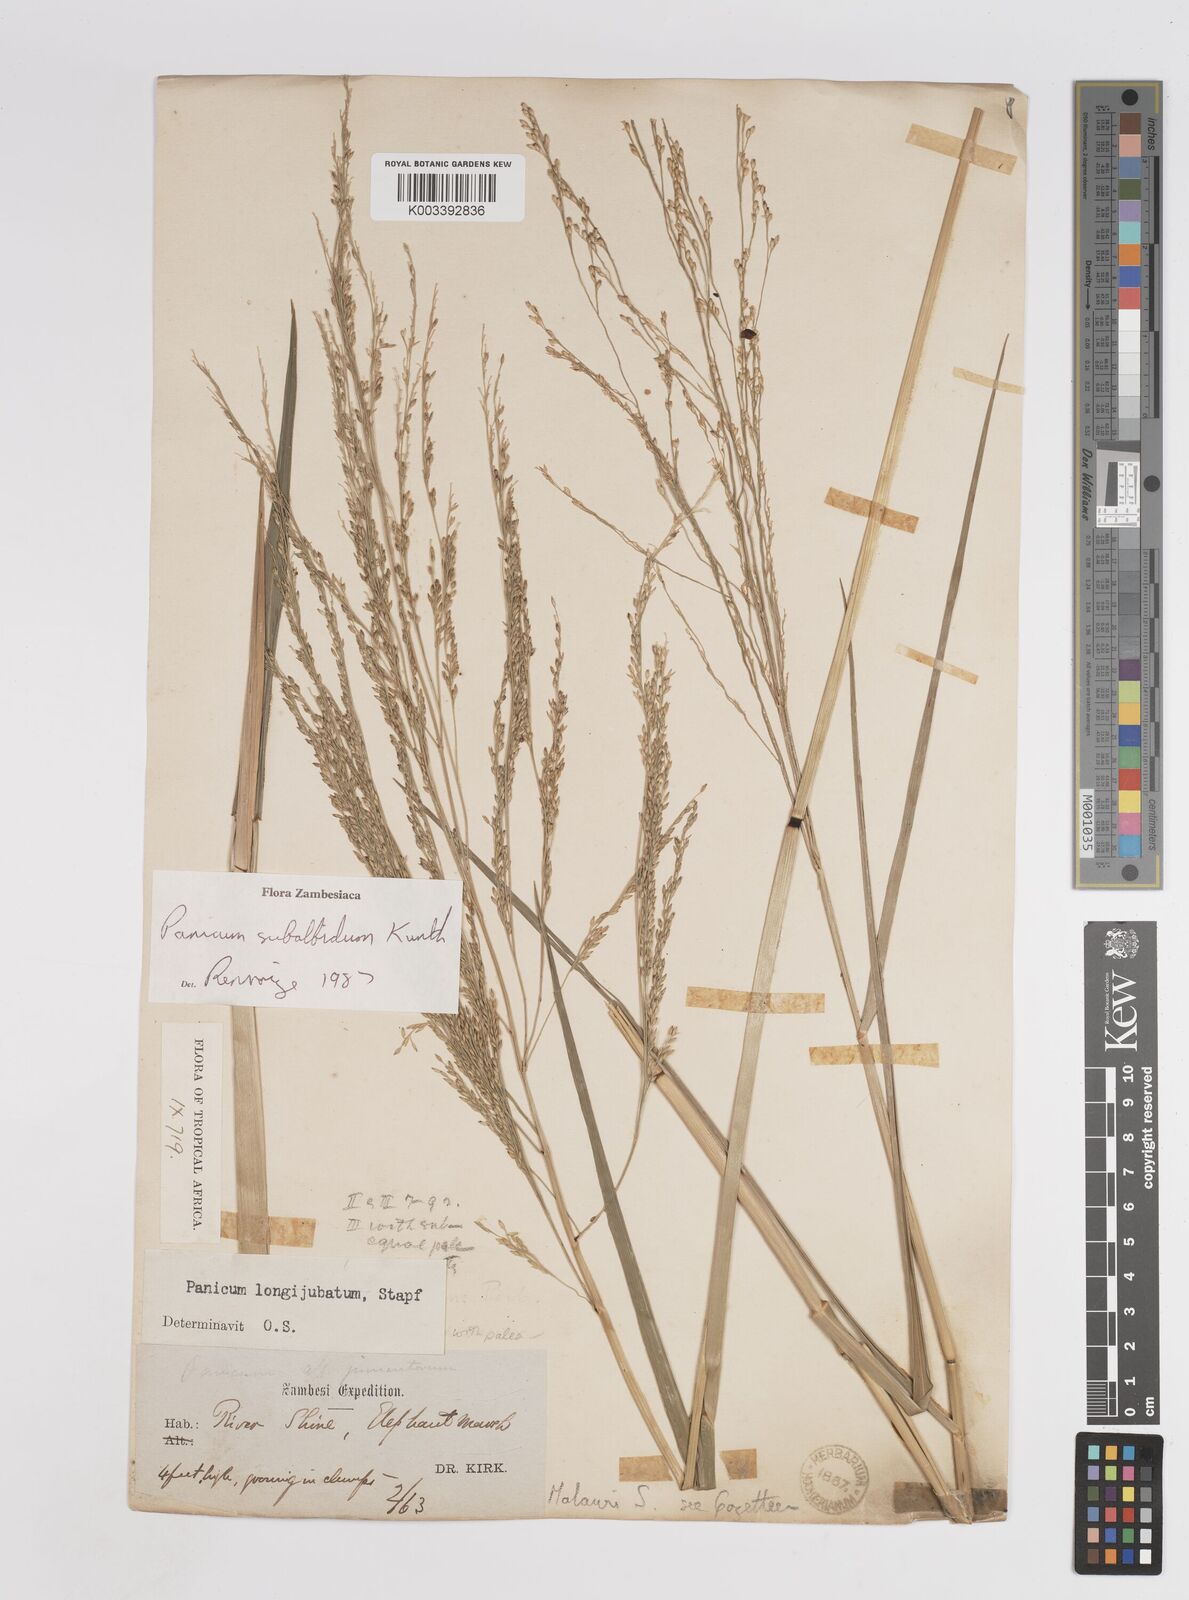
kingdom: Plantae
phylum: Tracheophyta
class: Liliopsida
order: Poales
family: Poaceae
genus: Panicum
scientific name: Panicum subalbidum
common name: Elbow buffalo grass
